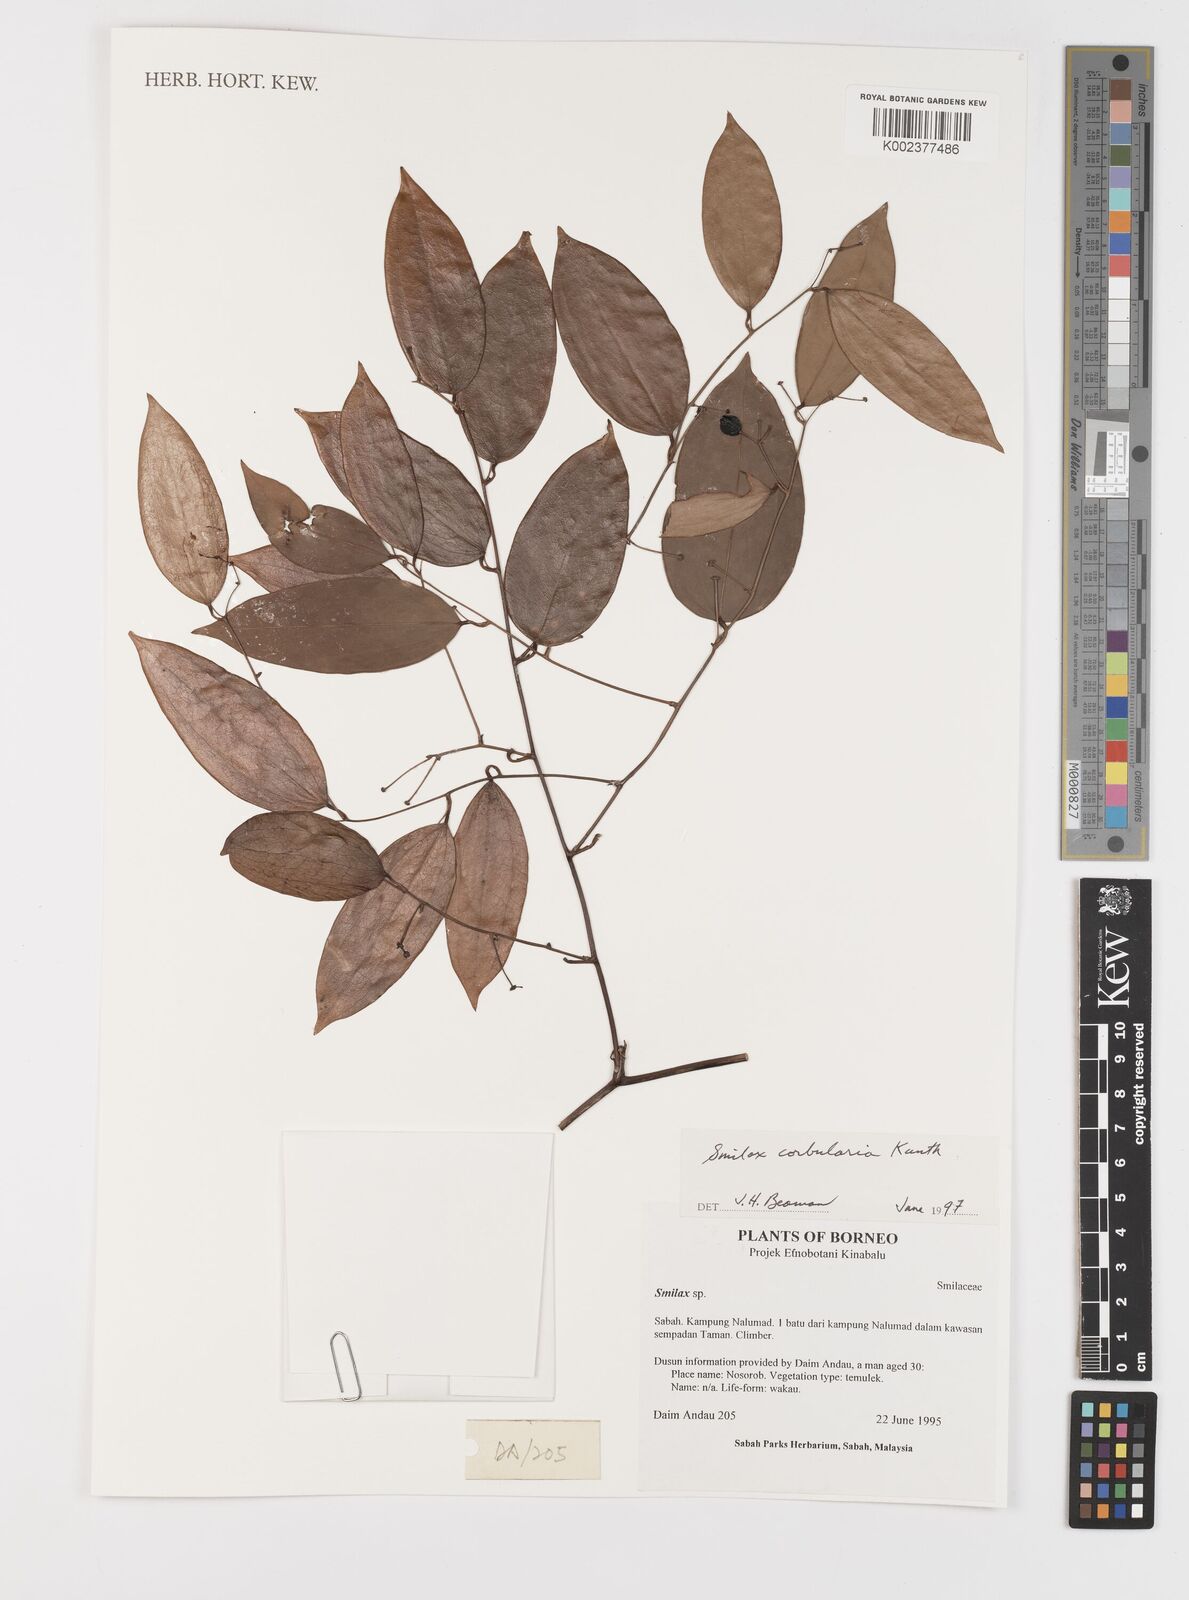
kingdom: Plantae
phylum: Tracheophyta
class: Liliopsida
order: Liliales
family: Smilacaceae
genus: Smilax
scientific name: Smilax corbularia
